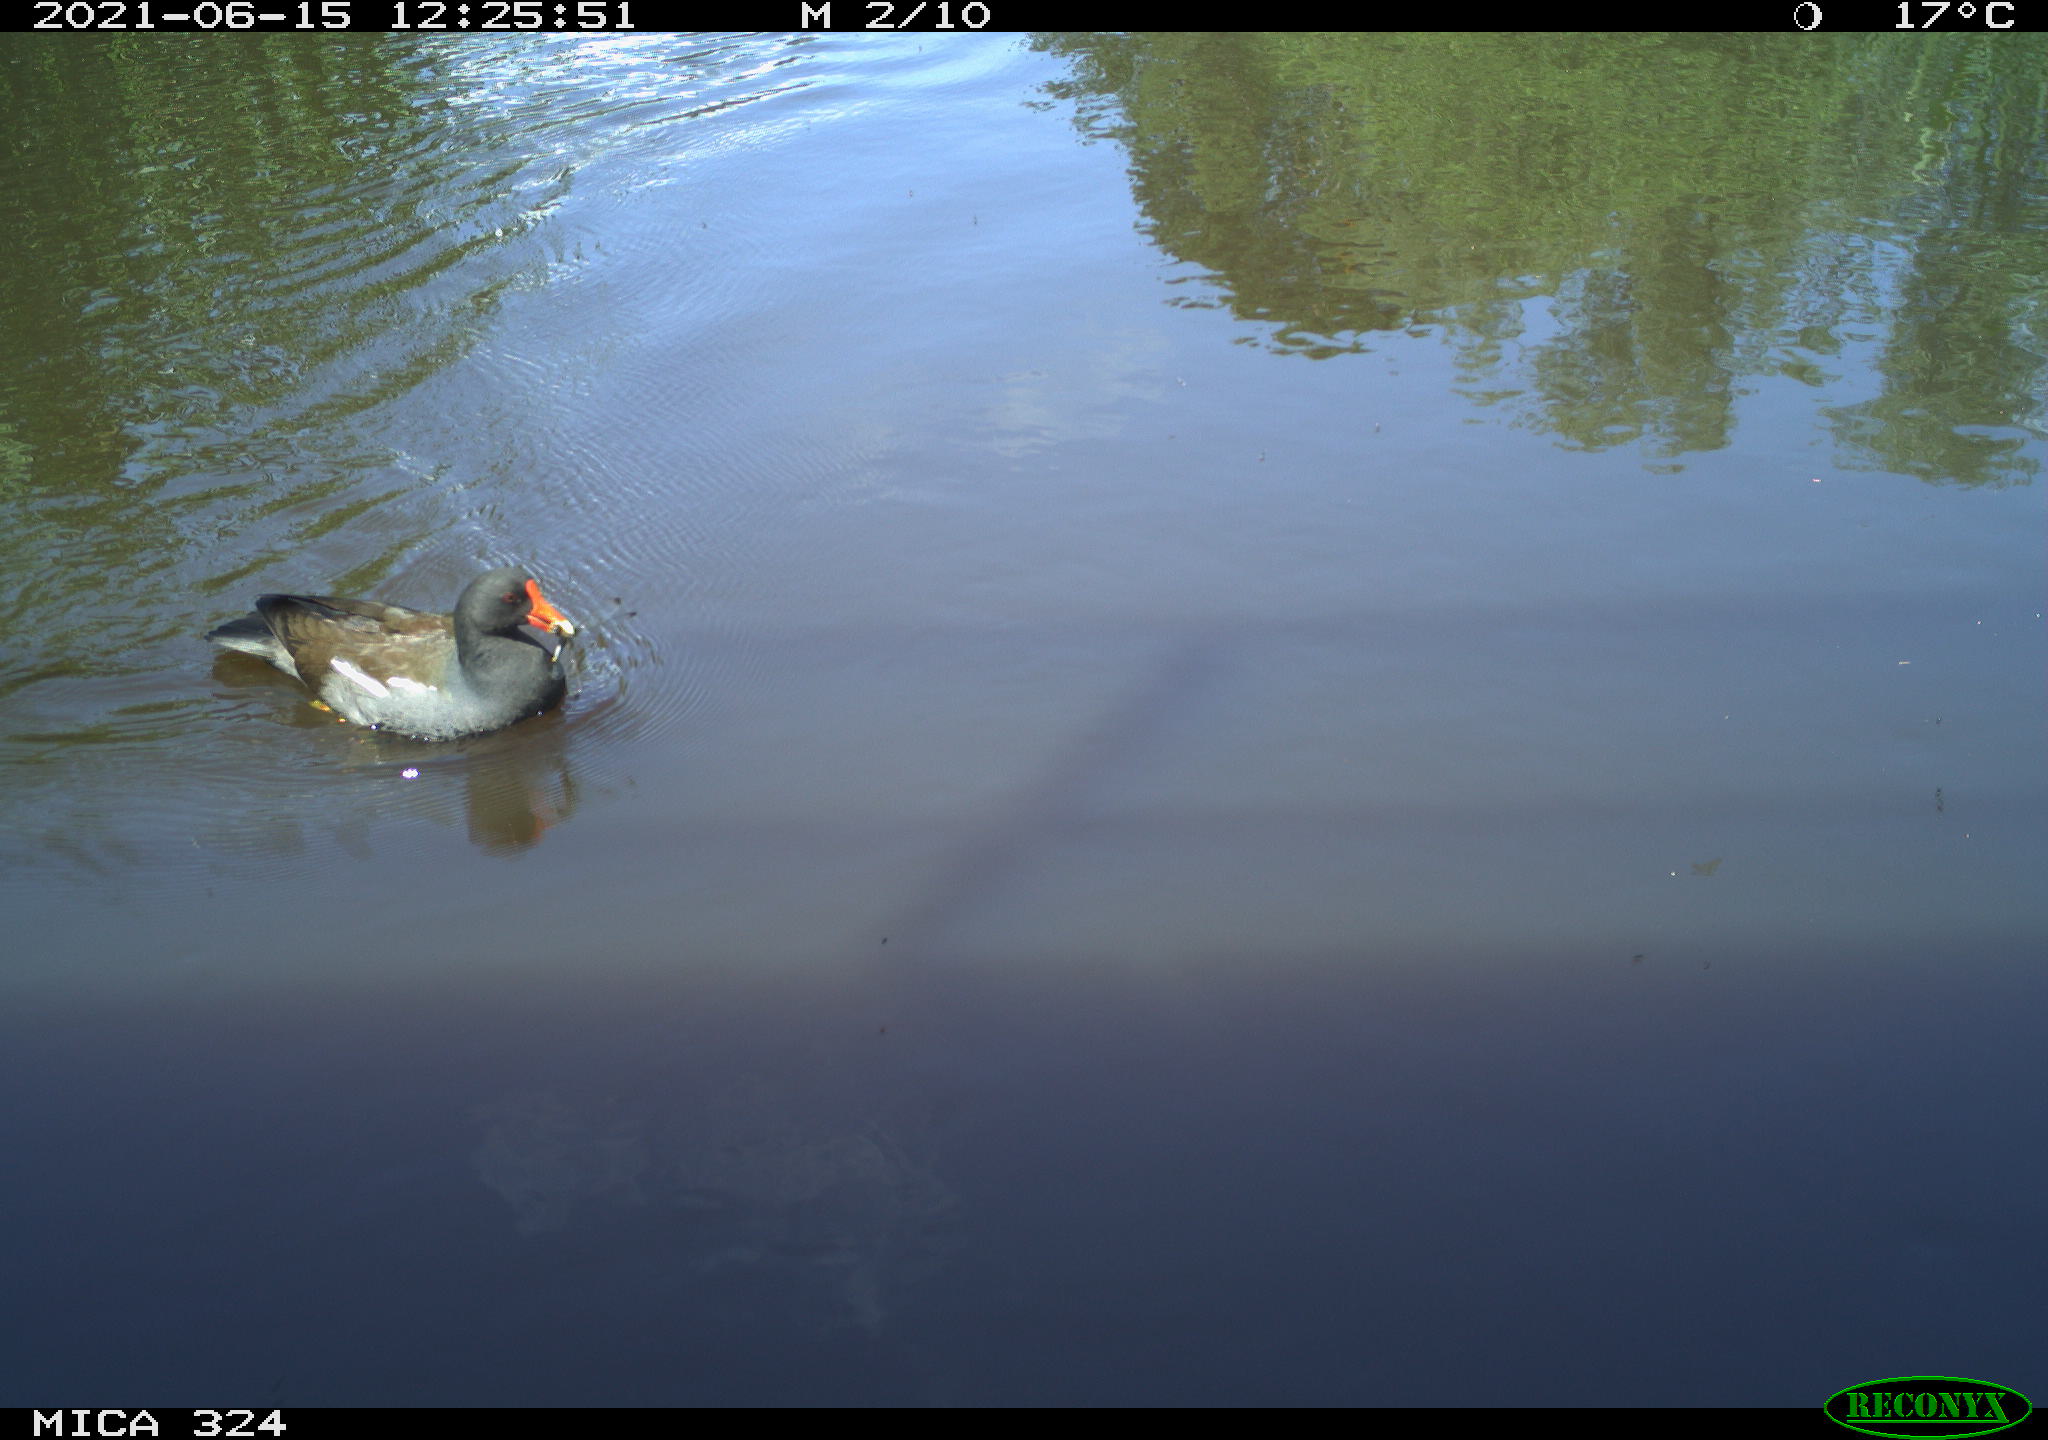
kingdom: Animalia
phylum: Chordata
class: Aves
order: Gruiformes
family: Rallidae
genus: Gallinula
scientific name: Gallinula chloropus
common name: Common moorhen
